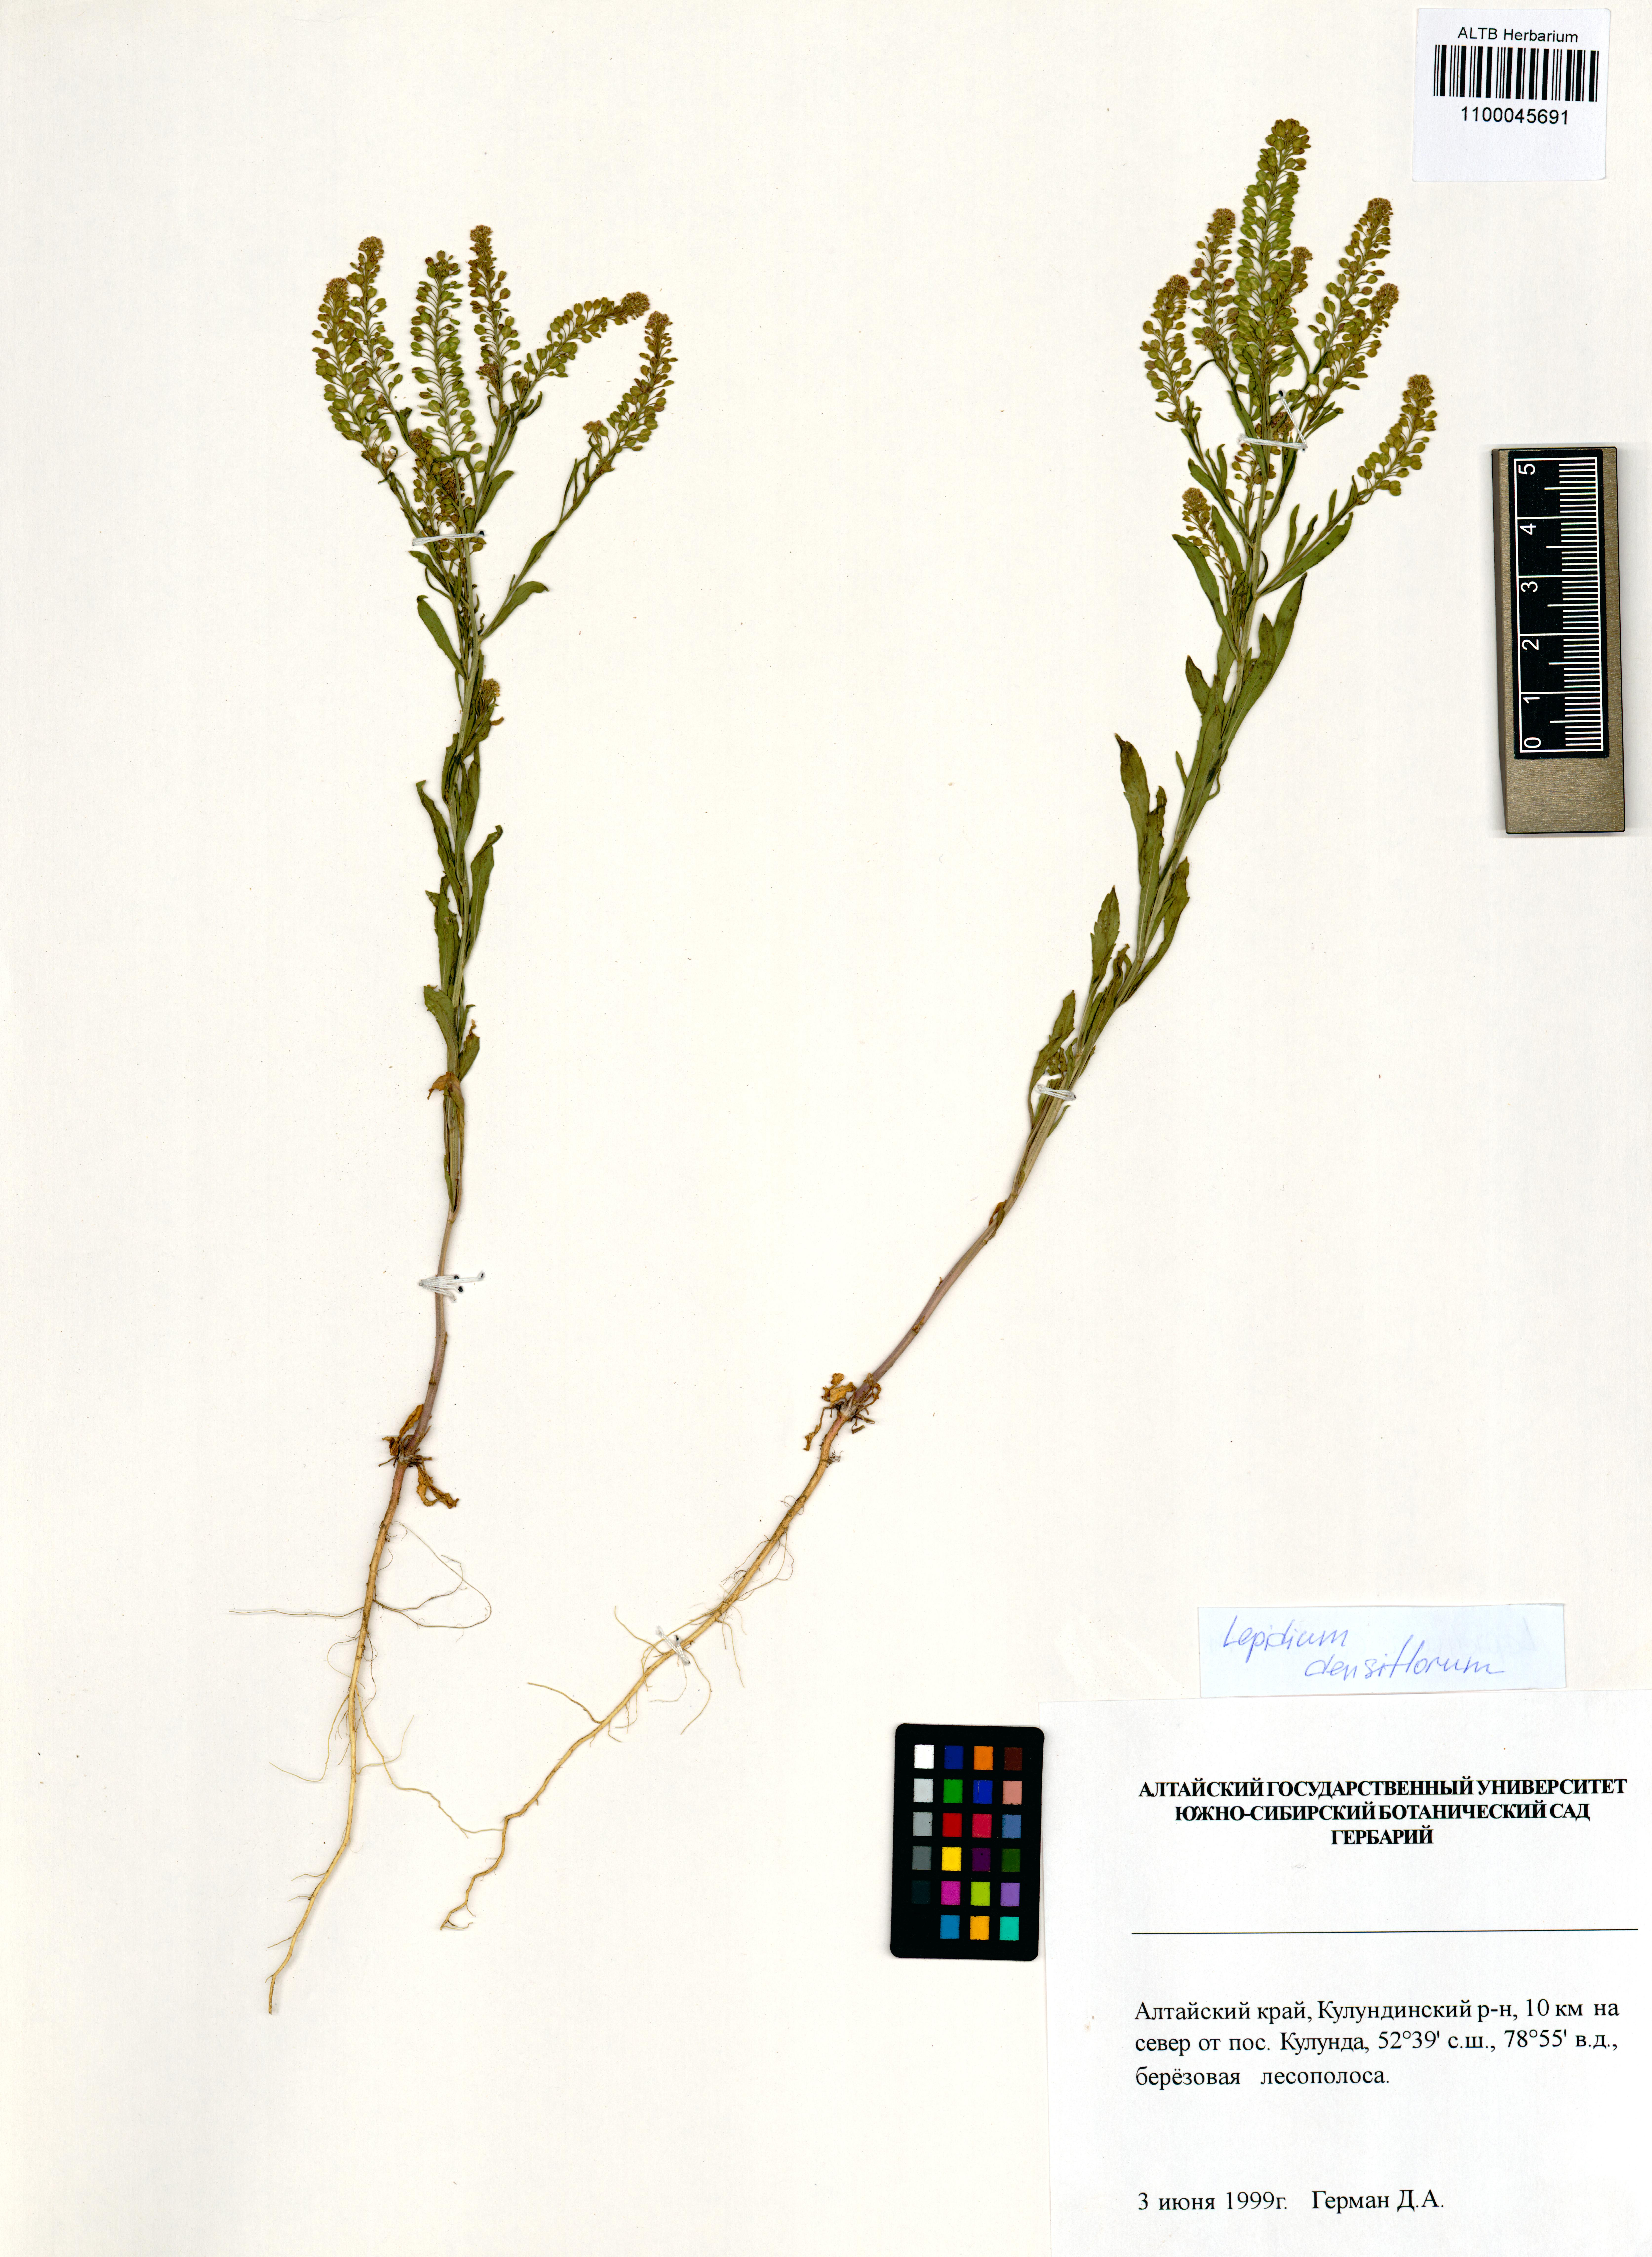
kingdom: Plantae
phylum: Tracheophyta
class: Magnoliopsida
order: Brassicales
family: Brassicaceae
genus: Lepidium
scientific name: Lepidium densiflorum
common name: Miner's pepperwort
